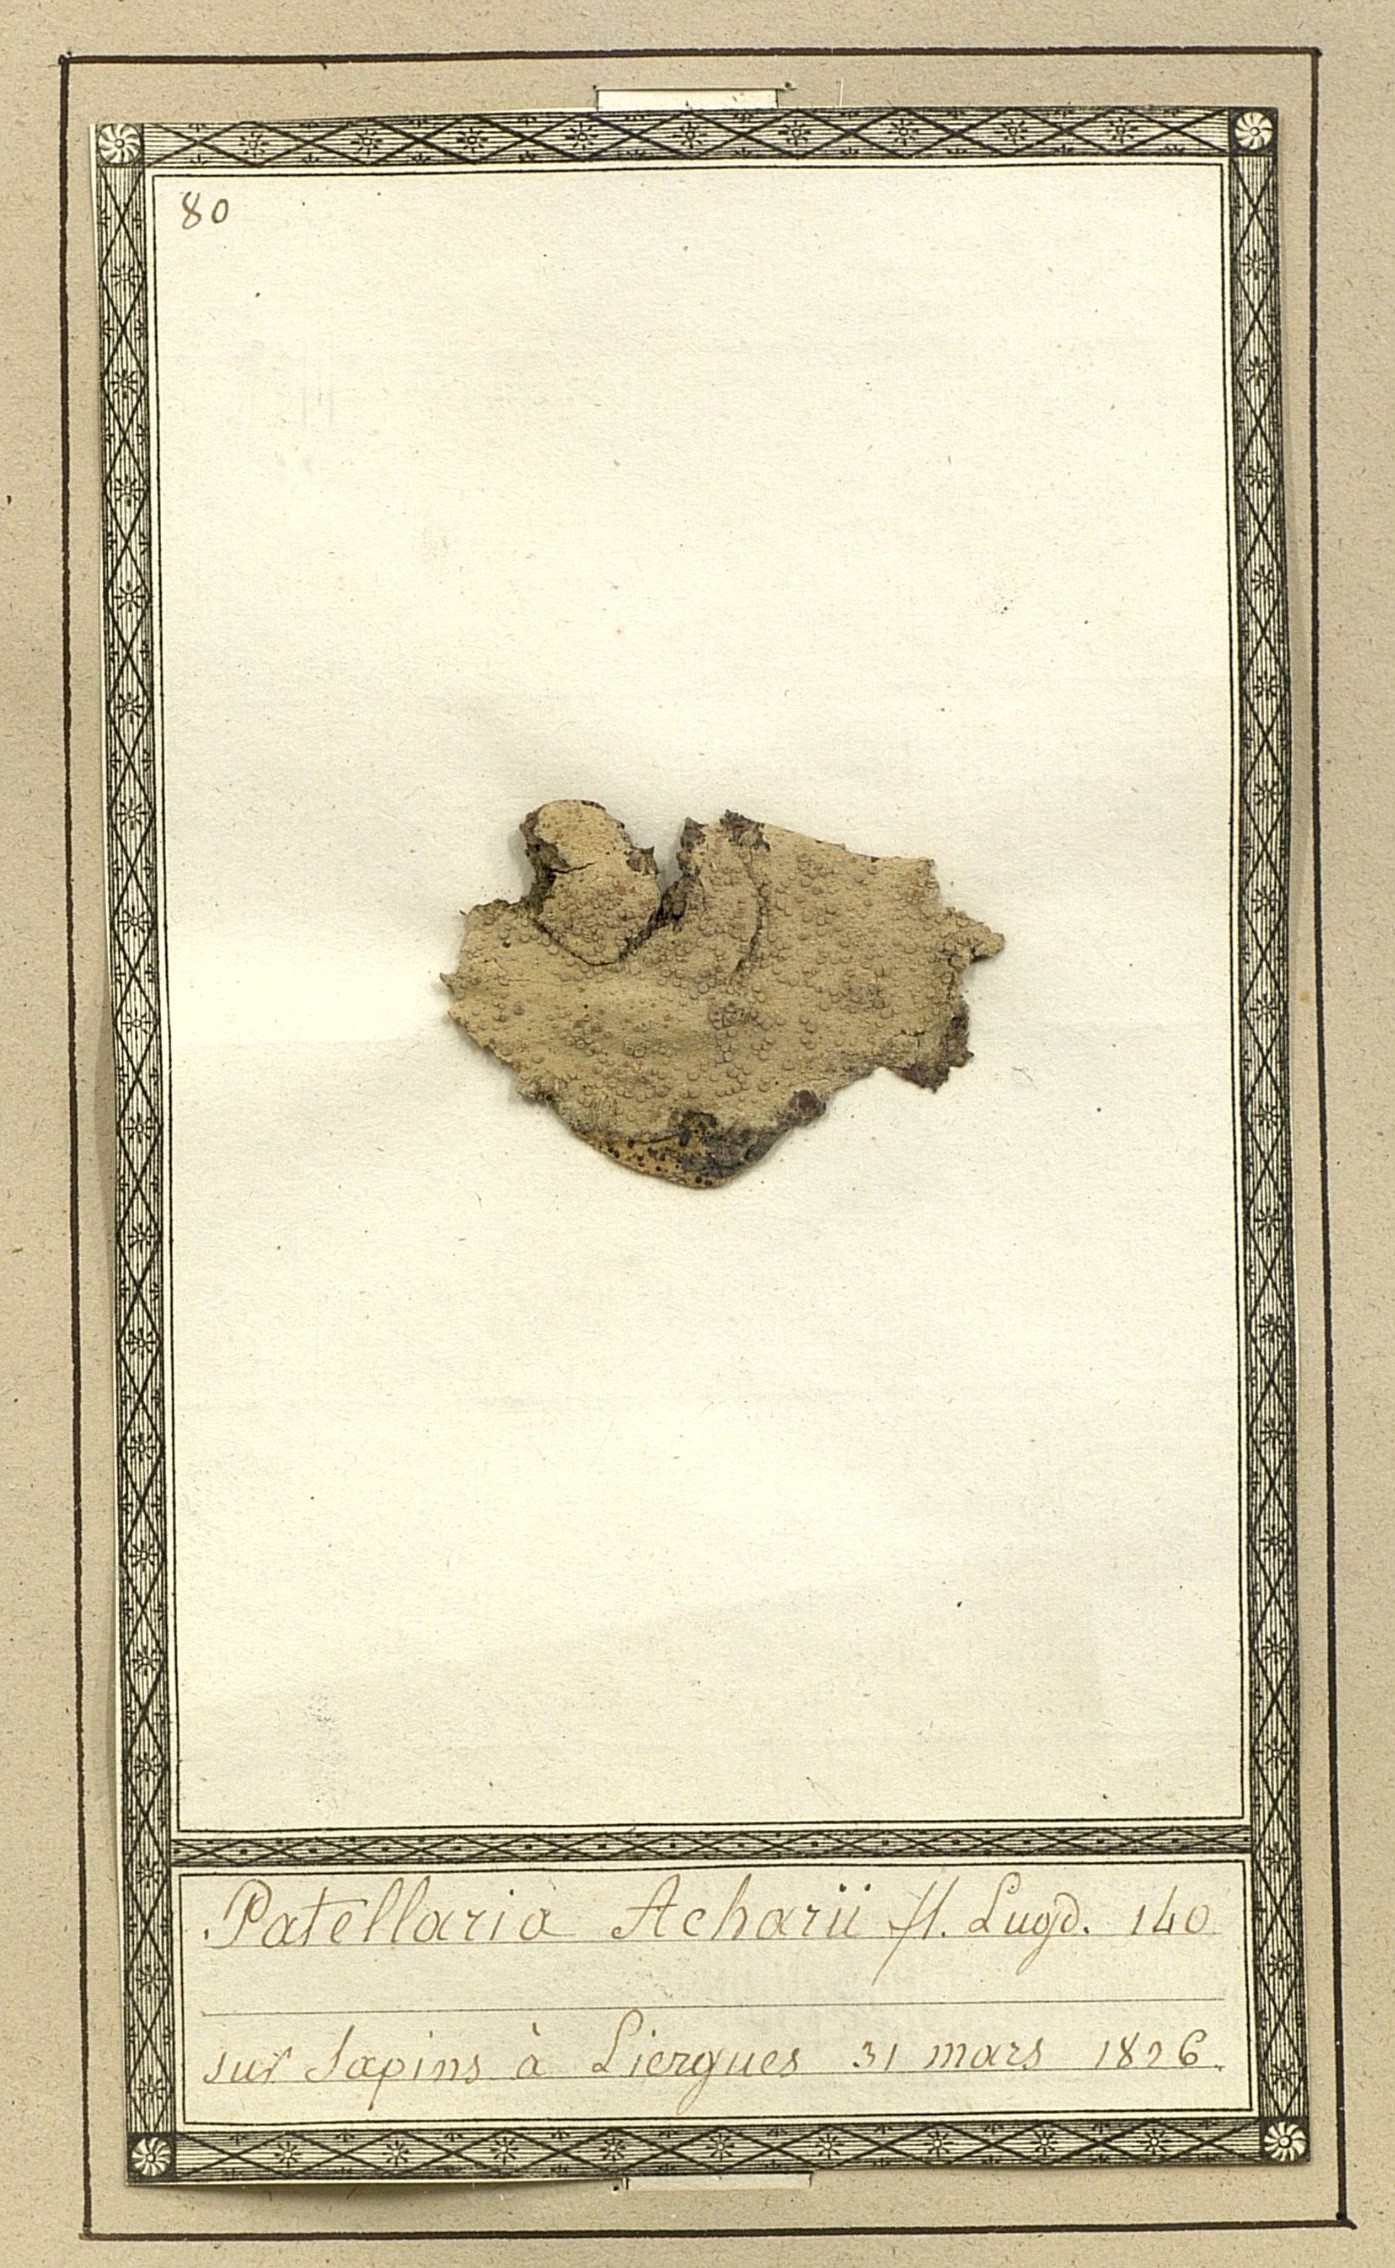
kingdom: Fungi
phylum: Ascomycota
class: Lecanoromycetes
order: Lecideales
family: Lecideaceae
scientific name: Lecideaceae
